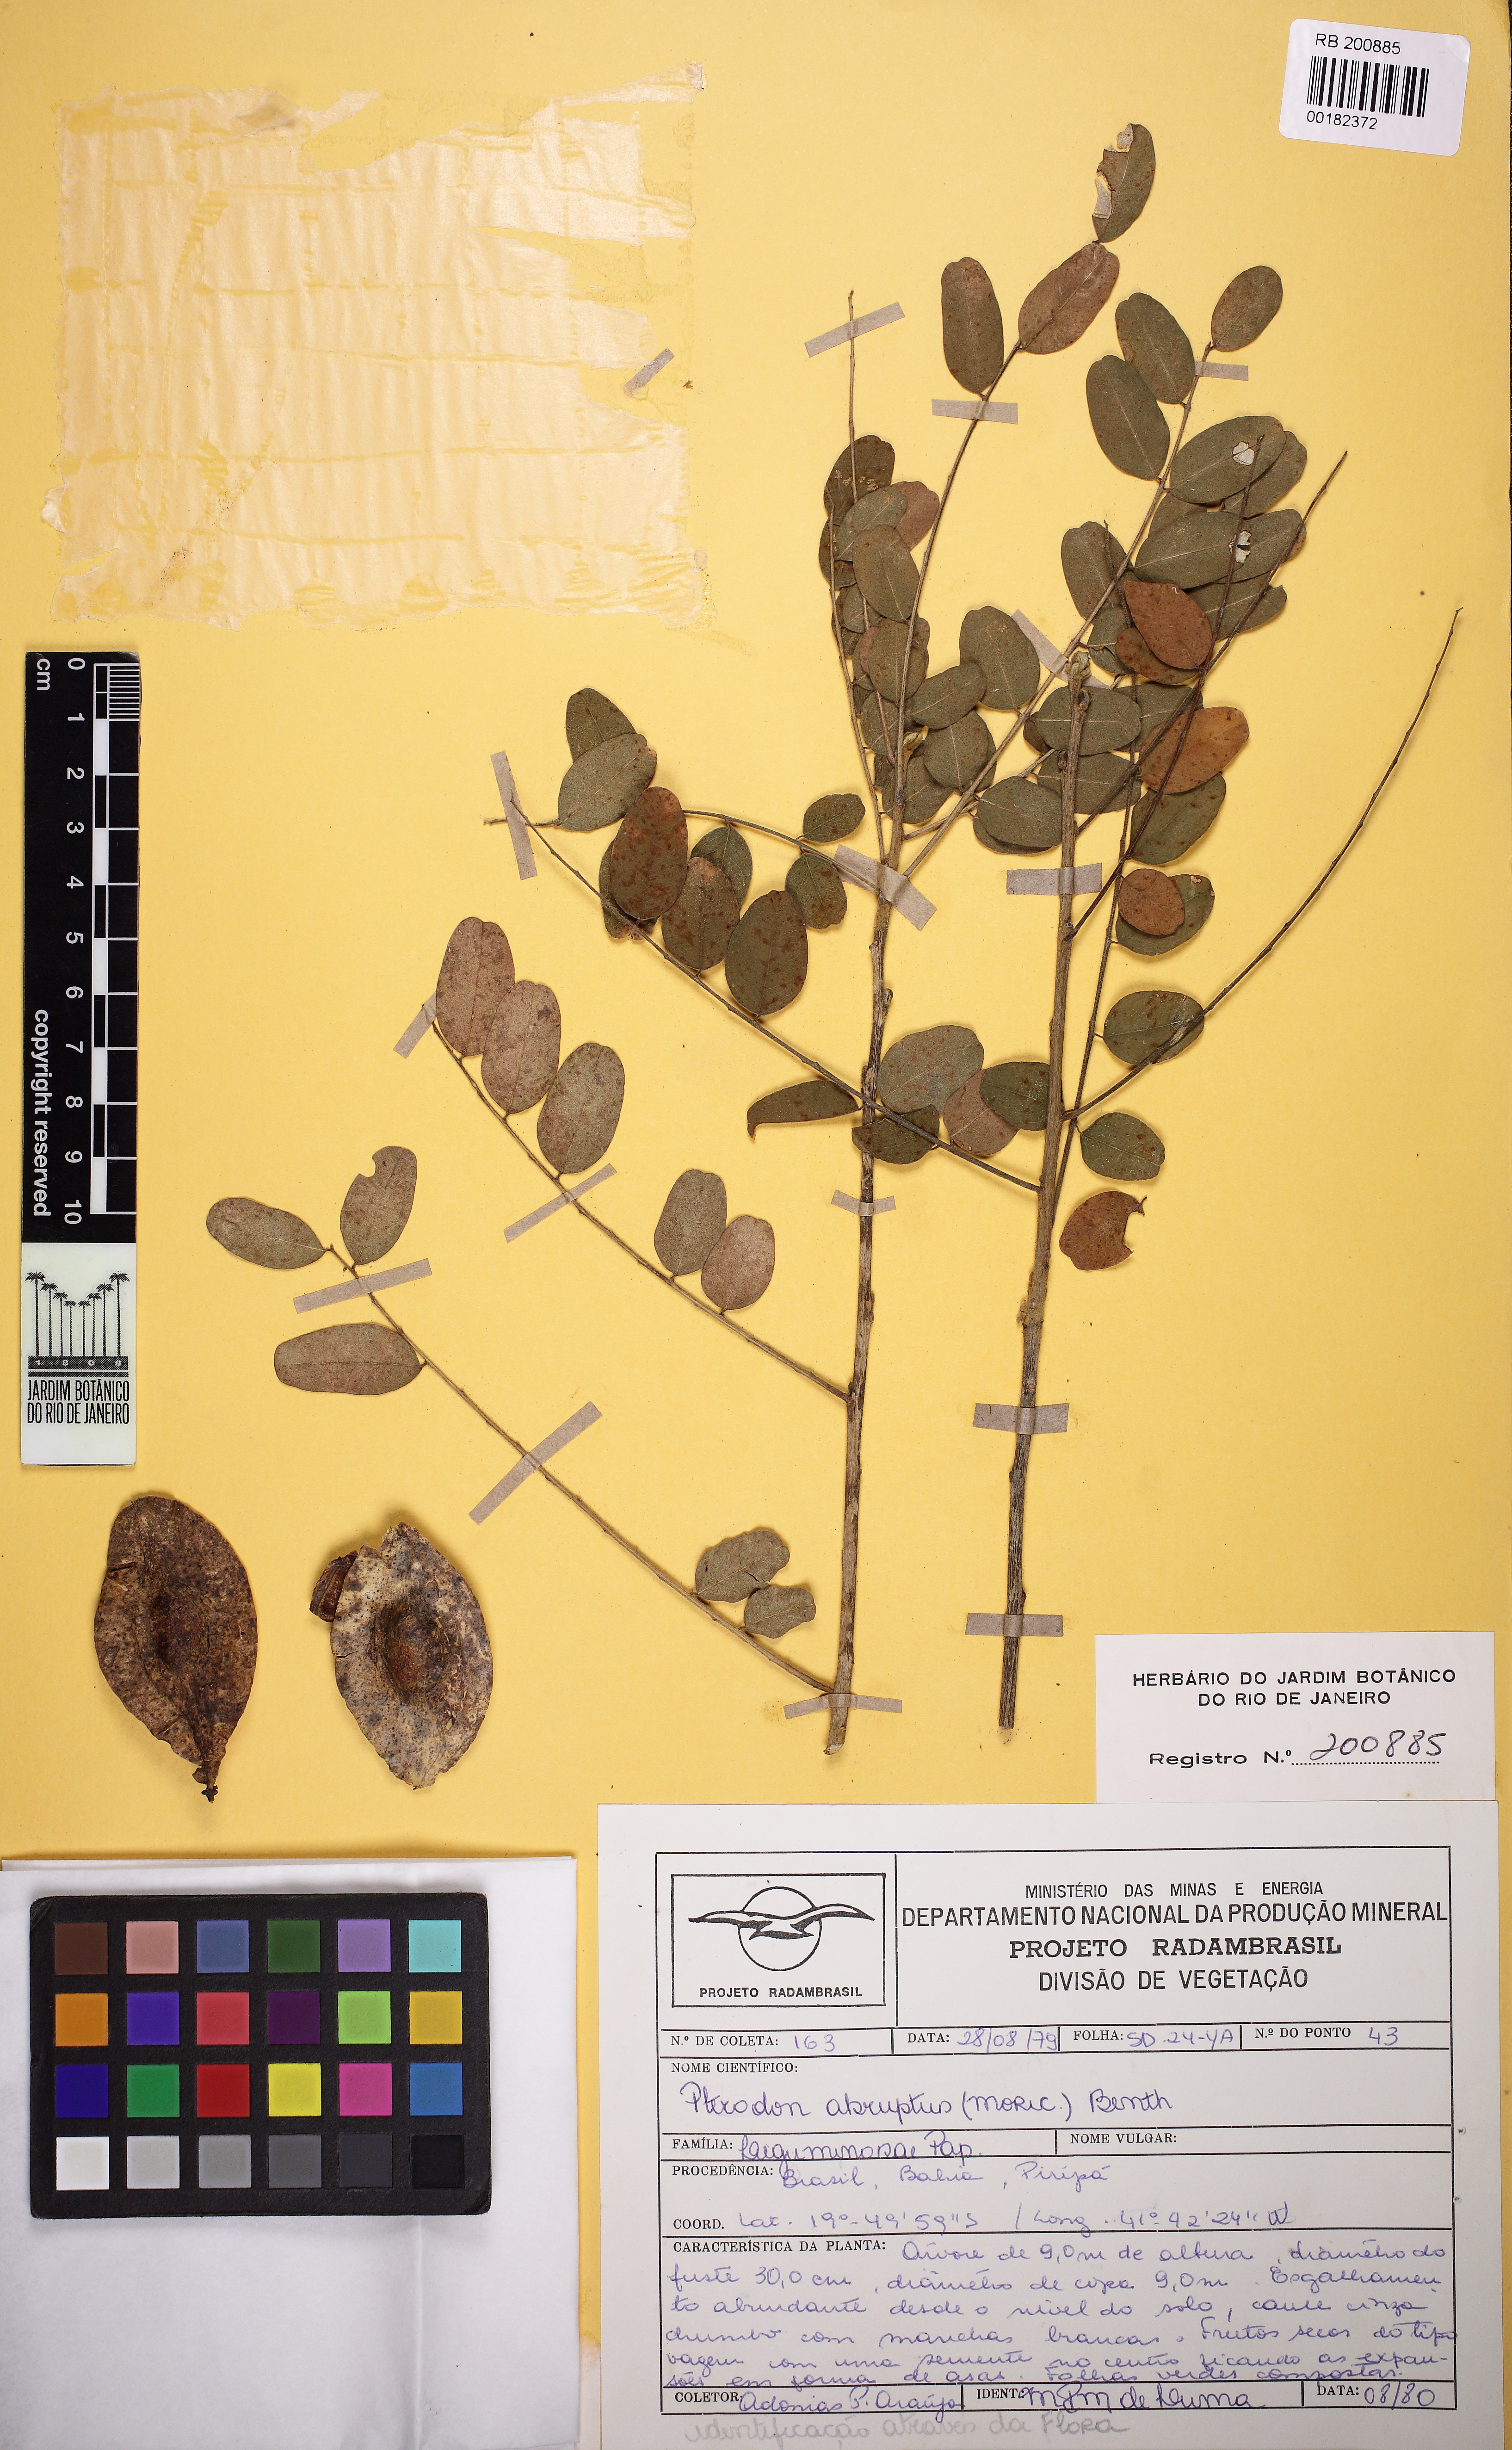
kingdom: Plantae
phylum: Tracheophyta
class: Magnoliopsida
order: Fabales
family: Fabaceae
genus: Pterodon
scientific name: Pterodon abruptus
